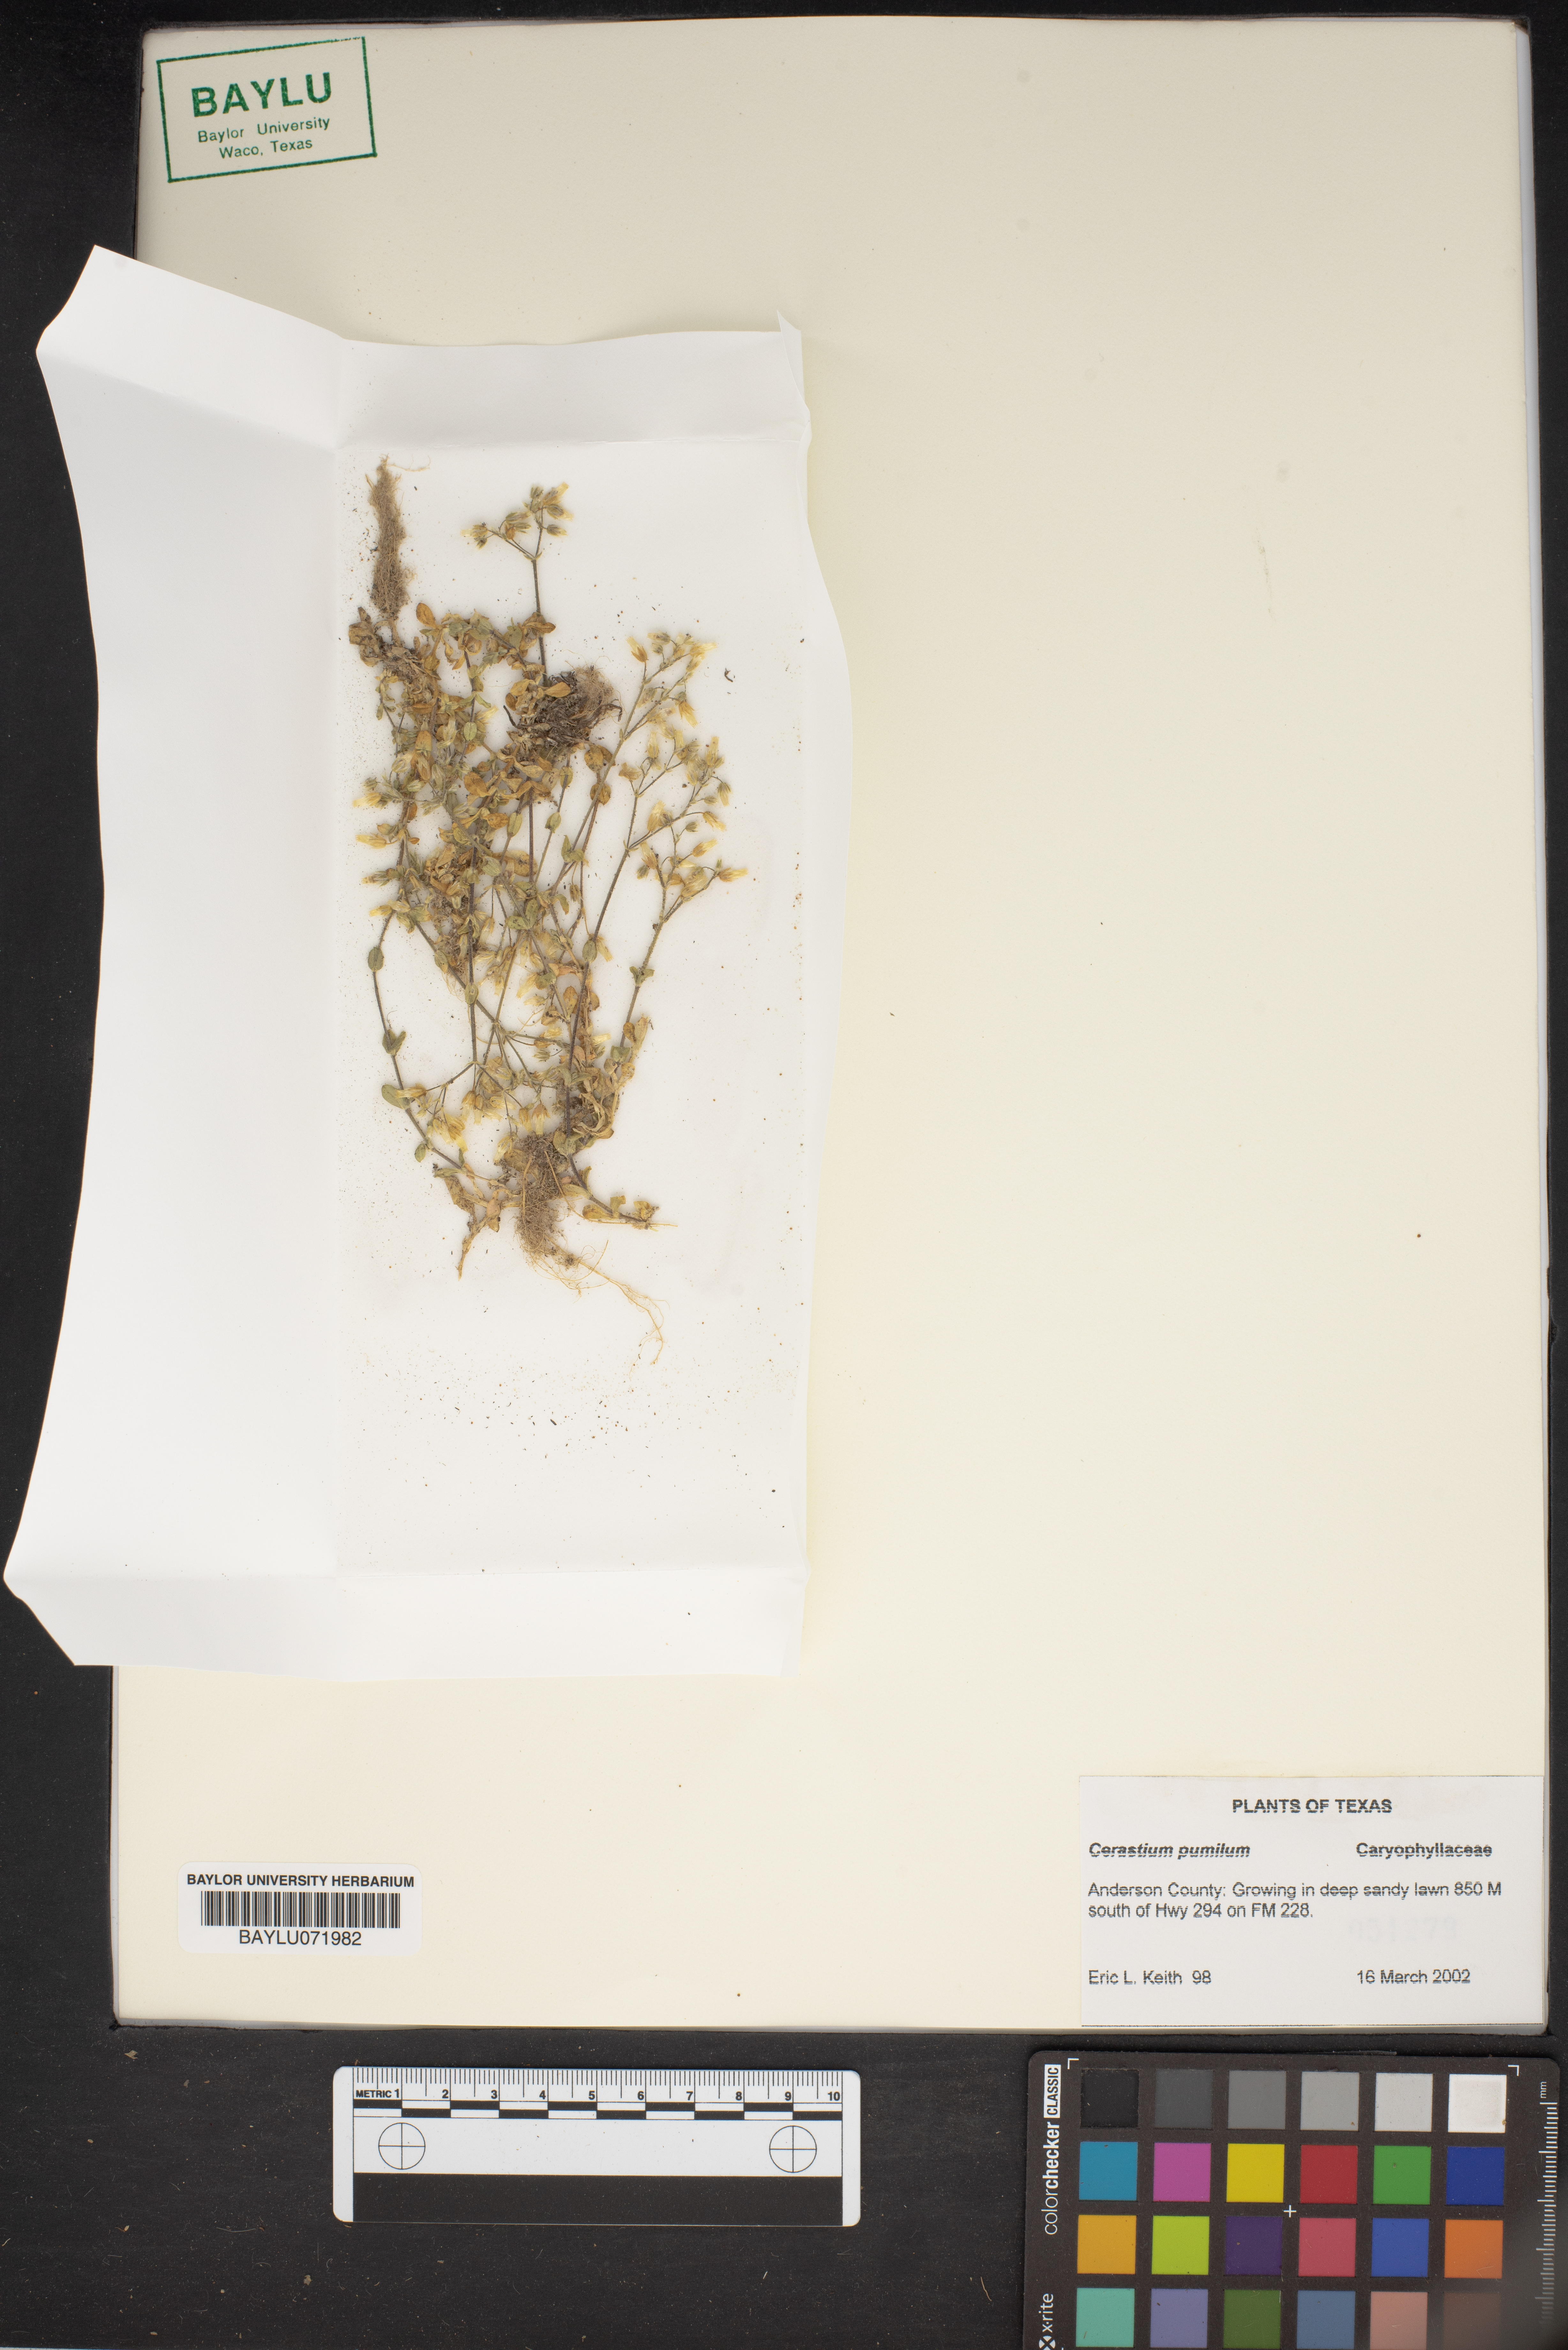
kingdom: Plantae
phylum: Tracheophyta
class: Magnoliopsida
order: Caryophyllales
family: Caryophyllaceae
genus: Cerastium
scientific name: Cerastium pumilum
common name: Dwarf mouse-ear
